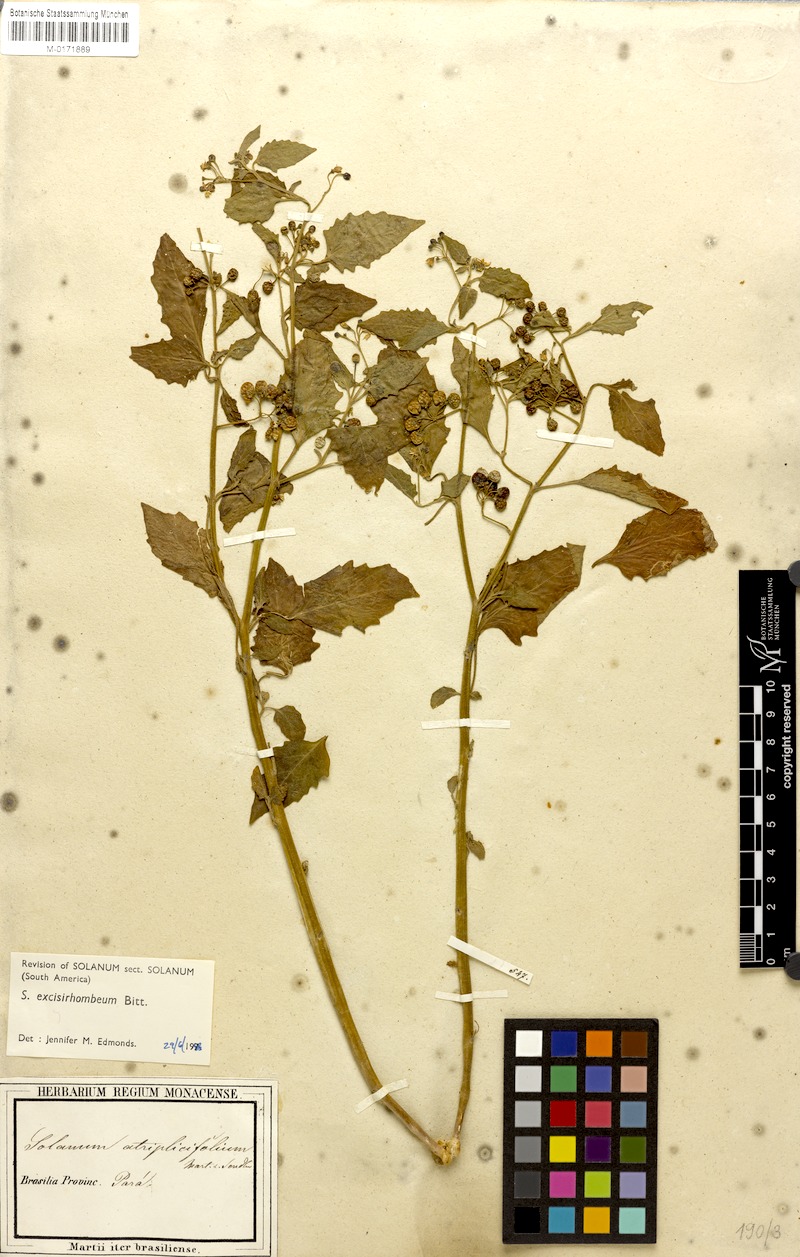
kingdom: Plantae
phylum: Tracheophyta
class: Magnoliopsida
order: Solanales
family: Solanaceae
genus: Solanum
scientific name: Solanum grandidentatum
